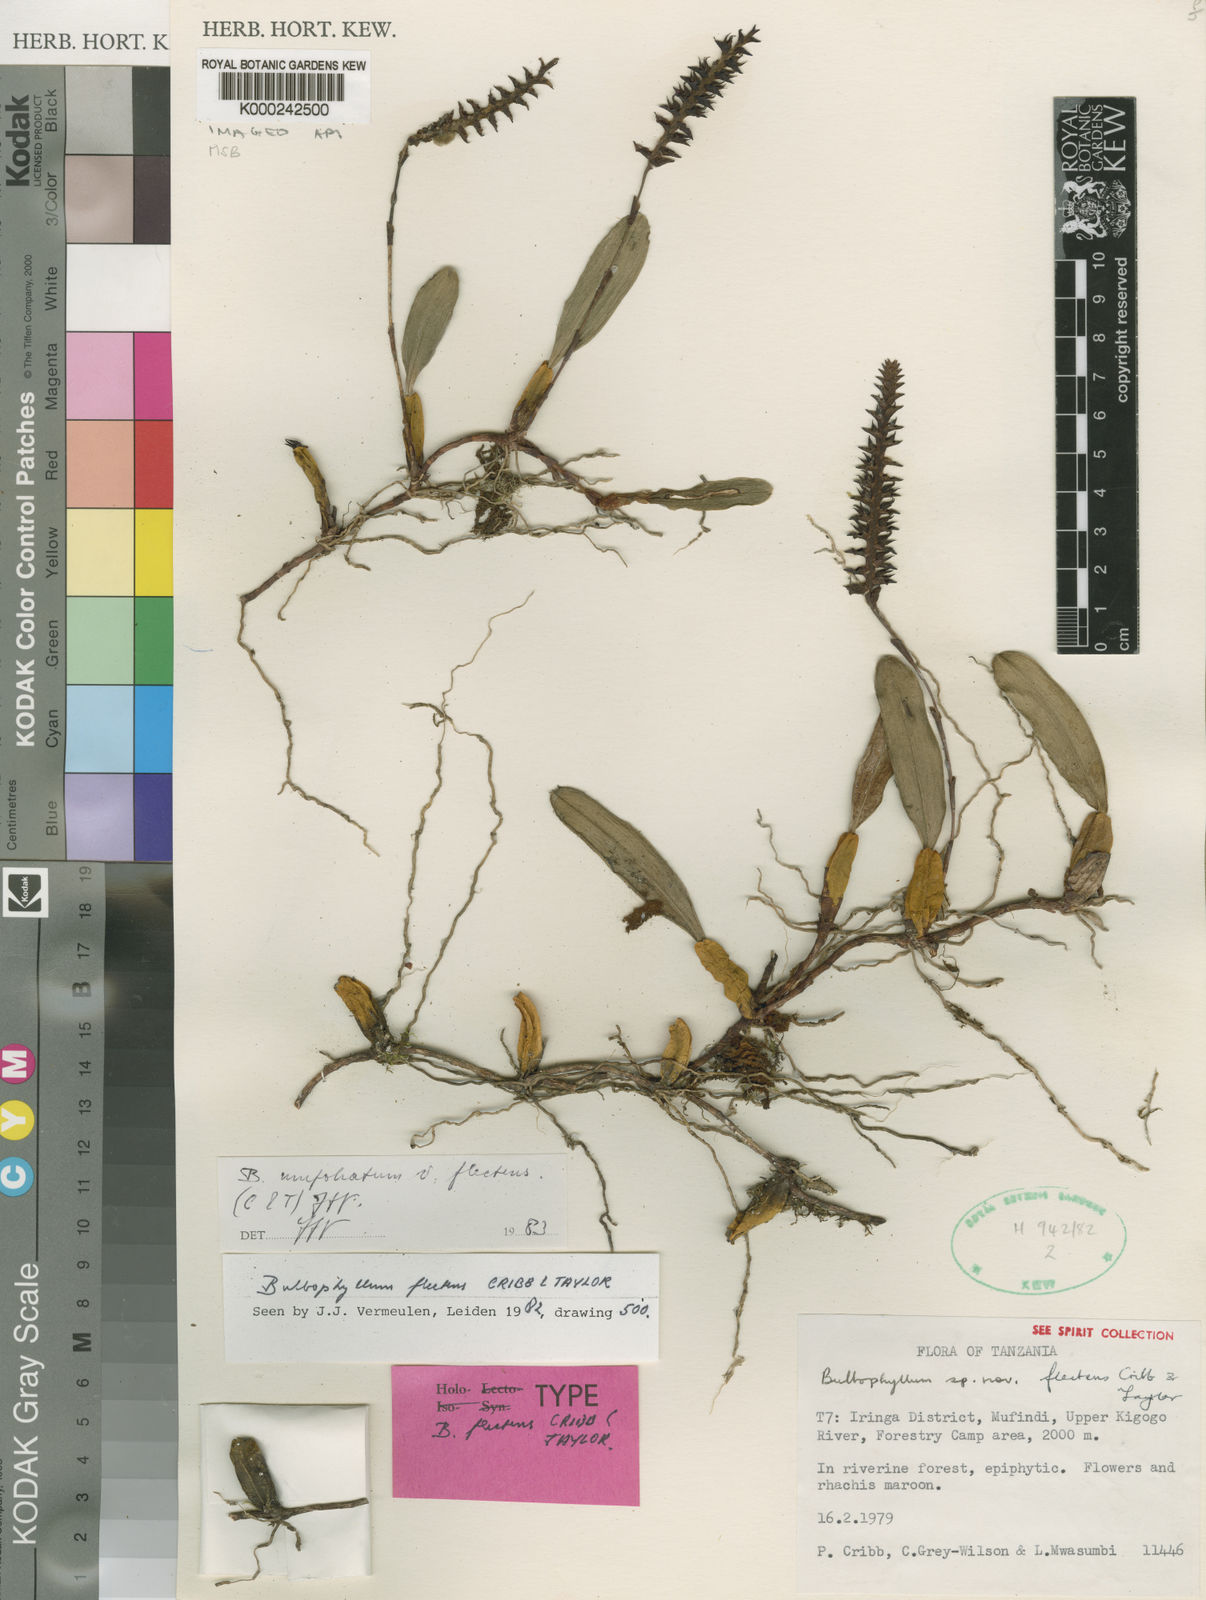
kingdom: Plantae
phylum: Tracheophyta
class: Liliopsida
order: Asparagales
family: Orchidaceae
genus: Bulbophyllum
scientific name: Bulbophyllum
